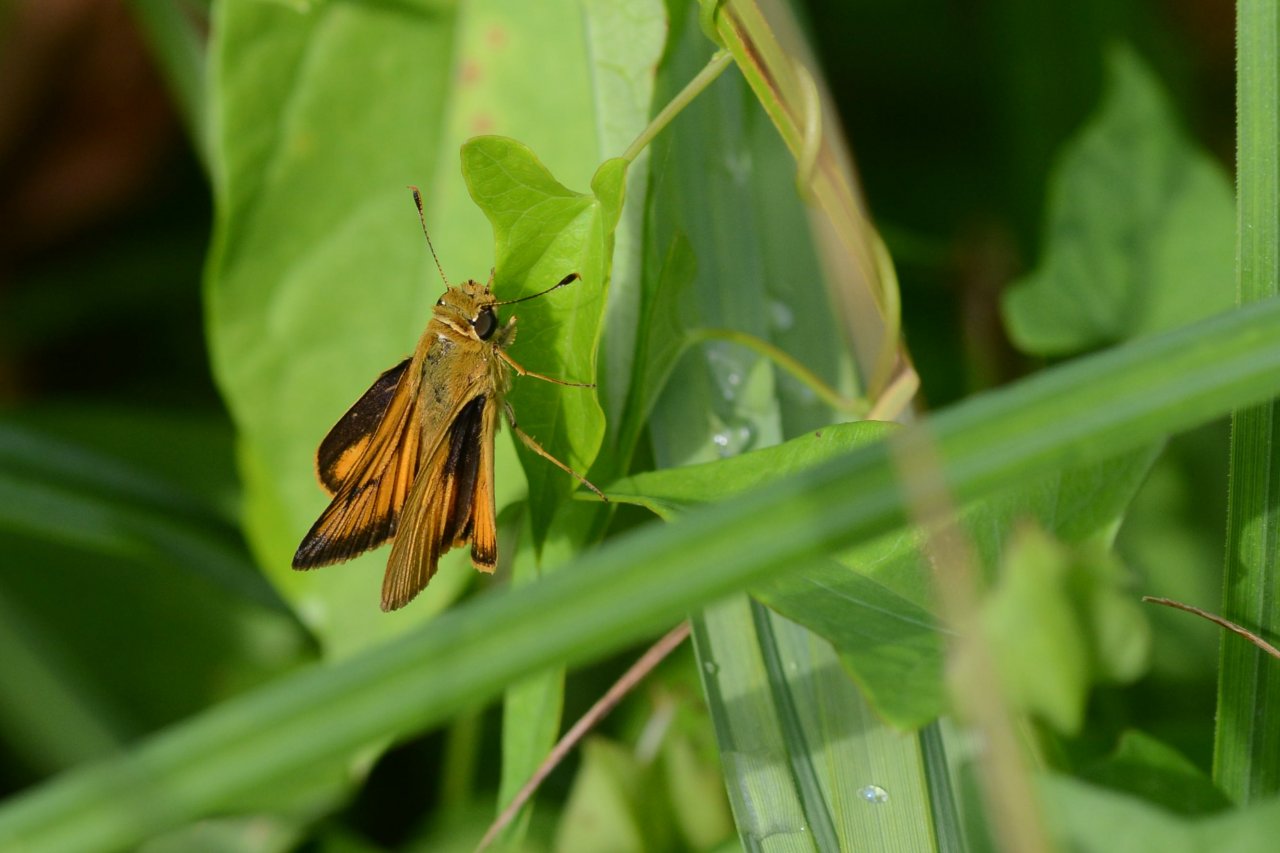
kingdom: Animalia
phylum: Arthropoda
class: Insecta
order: Lepidoptera
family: Hesperiidae
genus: Atrytone
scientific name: Atrytone delaware
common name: Delaware Skipper
